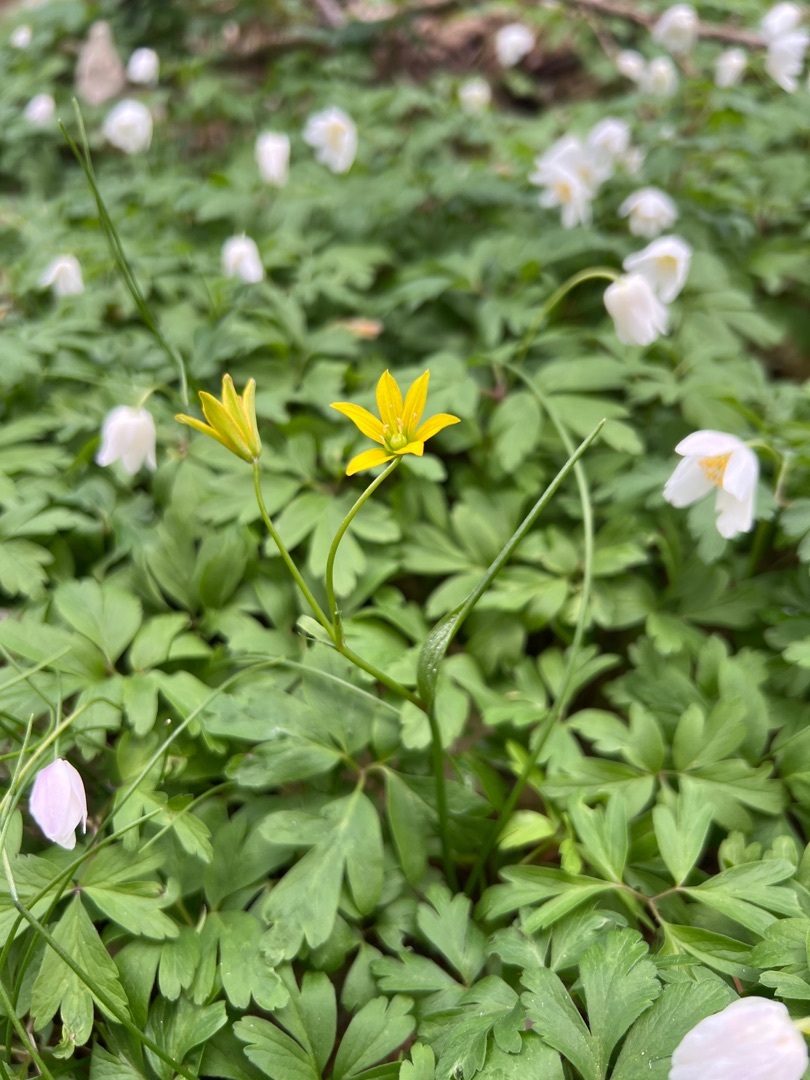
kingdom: Plantae
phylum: Tracheophyta
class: Liliopsida
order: Liliales
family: Liliaceae
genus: Gagea
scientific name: Gagea spathacea
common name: Hylster-guldstjerne
